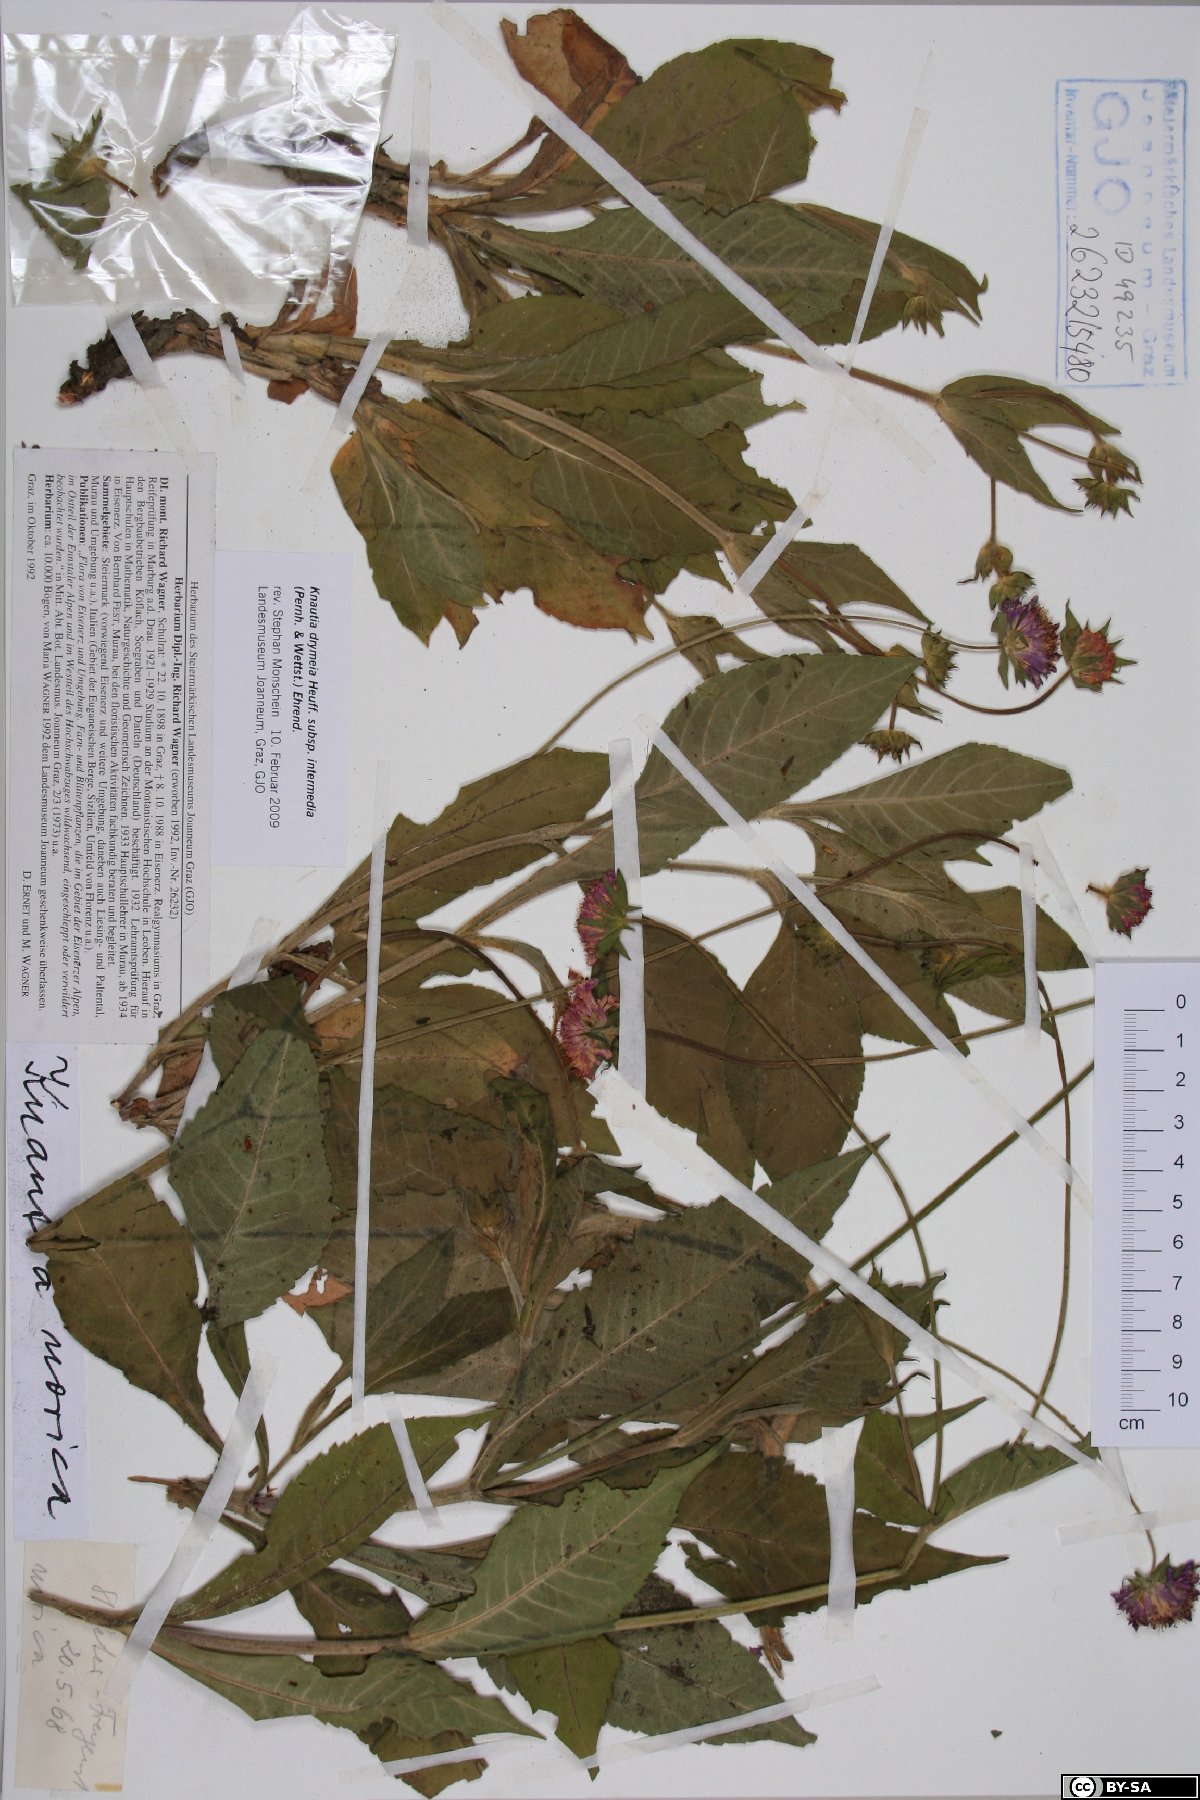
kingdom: Plantae
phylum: Tracheophyta
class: Magnoliopsida
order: Dipsacales
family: Caprifoliaceae
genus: Knautia
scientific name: Knautia drymeia
